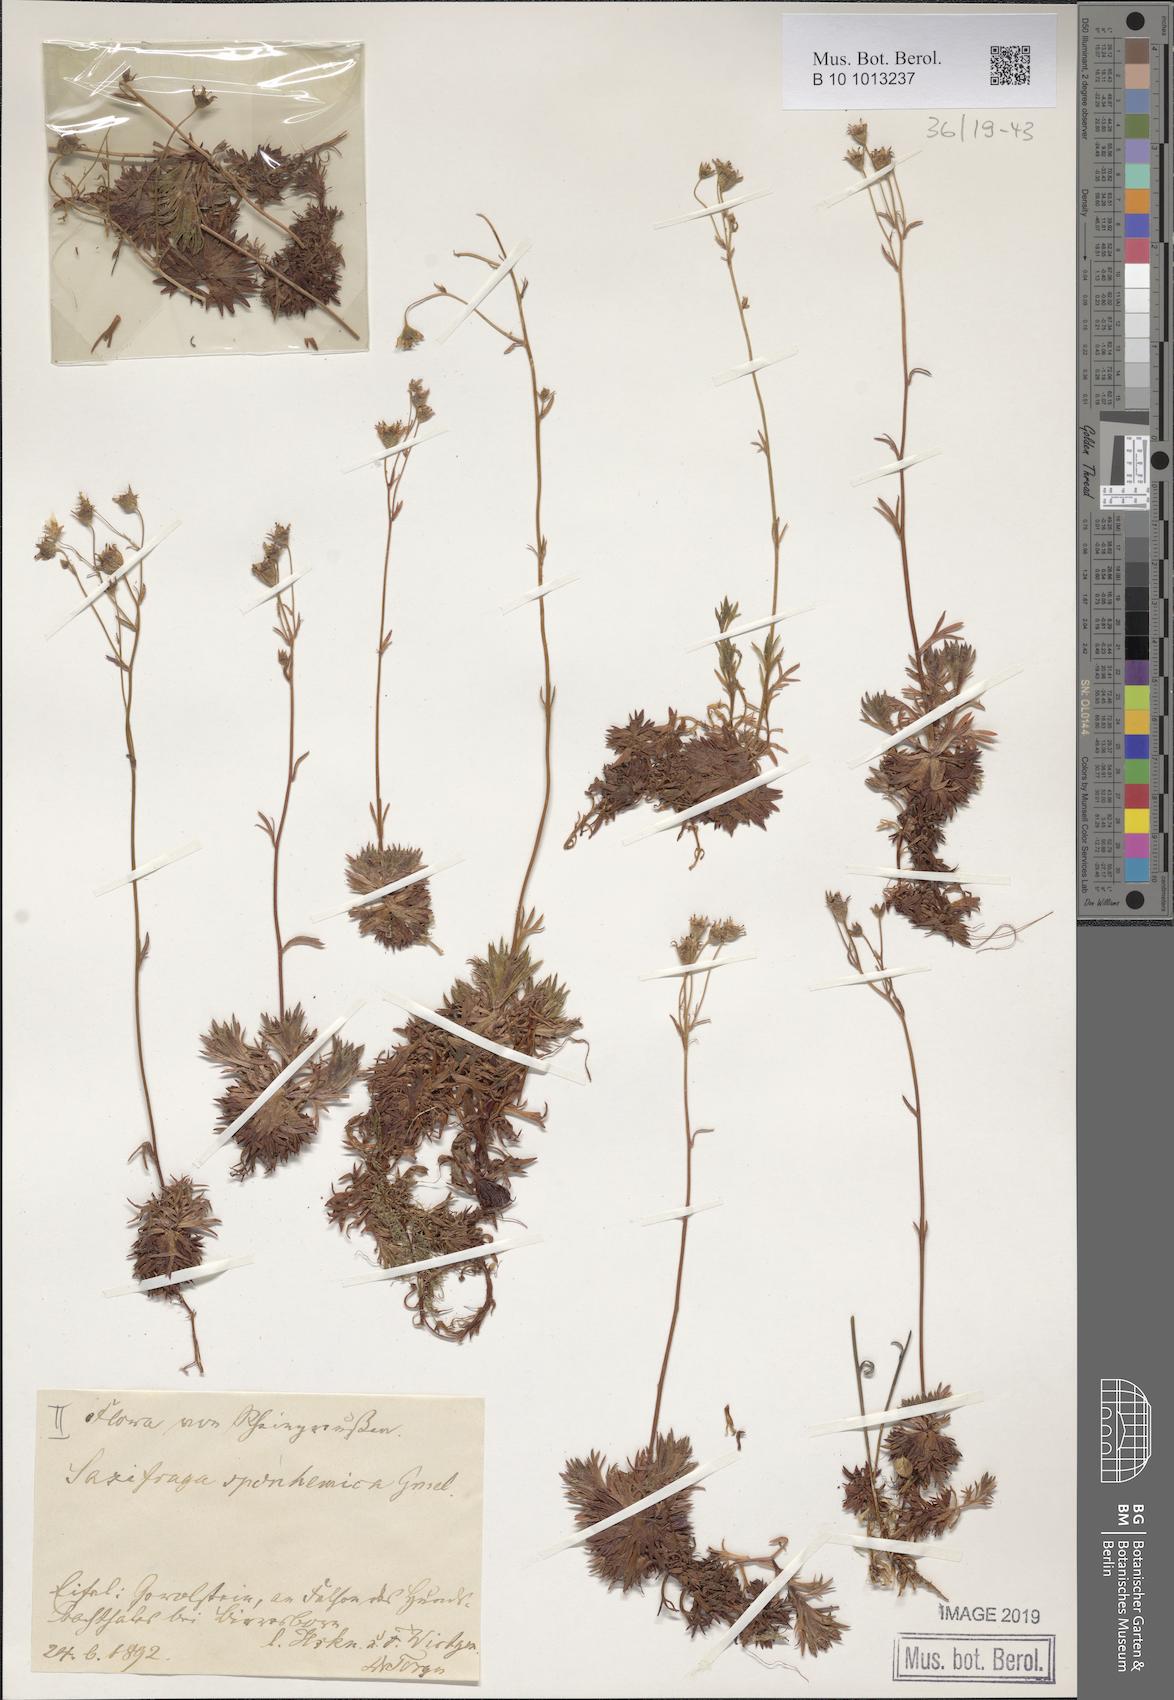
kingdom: Plantae
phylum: Tracheophyta
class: Magnoliopsida
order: Saxifragales
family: Saxifragaceae
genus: Saxifraga
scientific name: Saxifraga rosacea
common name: Irish saxifrage
